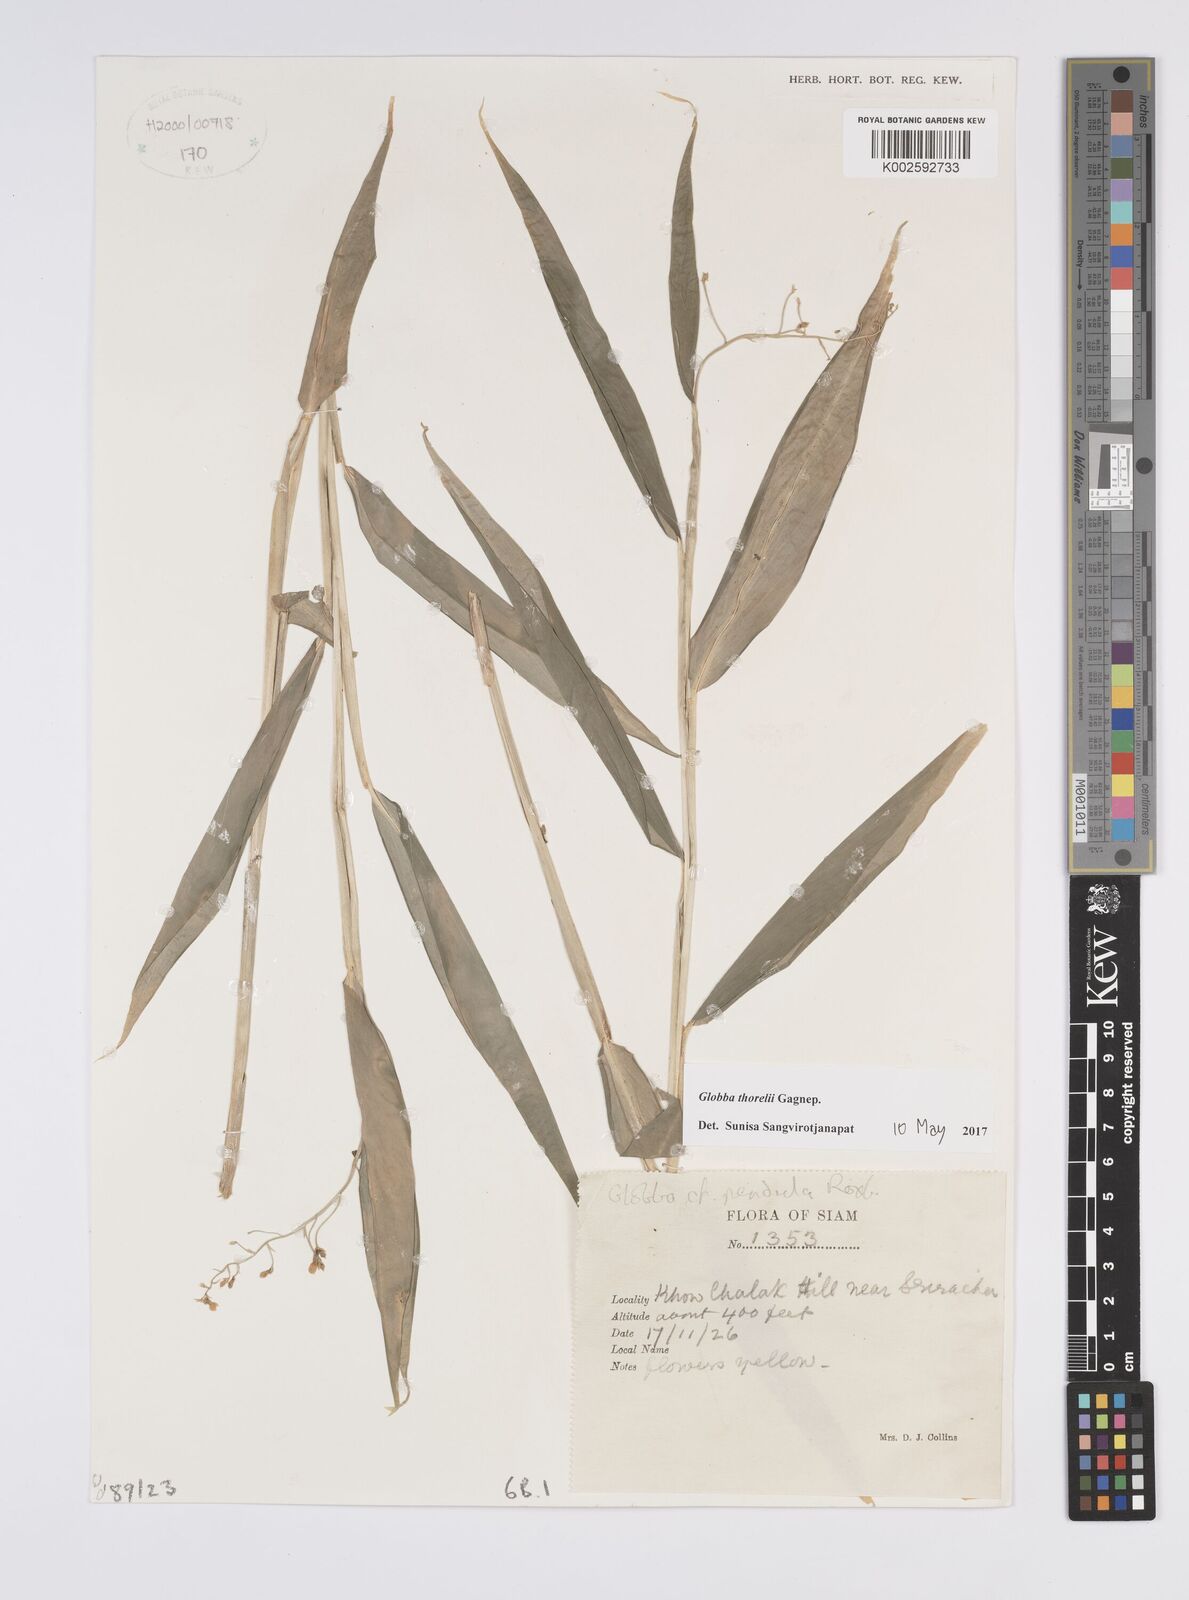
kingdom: Plantae
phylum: Tracheophyta
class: Liliopsida
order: Zingiberales
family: Zingiberaceae
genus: Globba
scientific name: Globba thorelii
